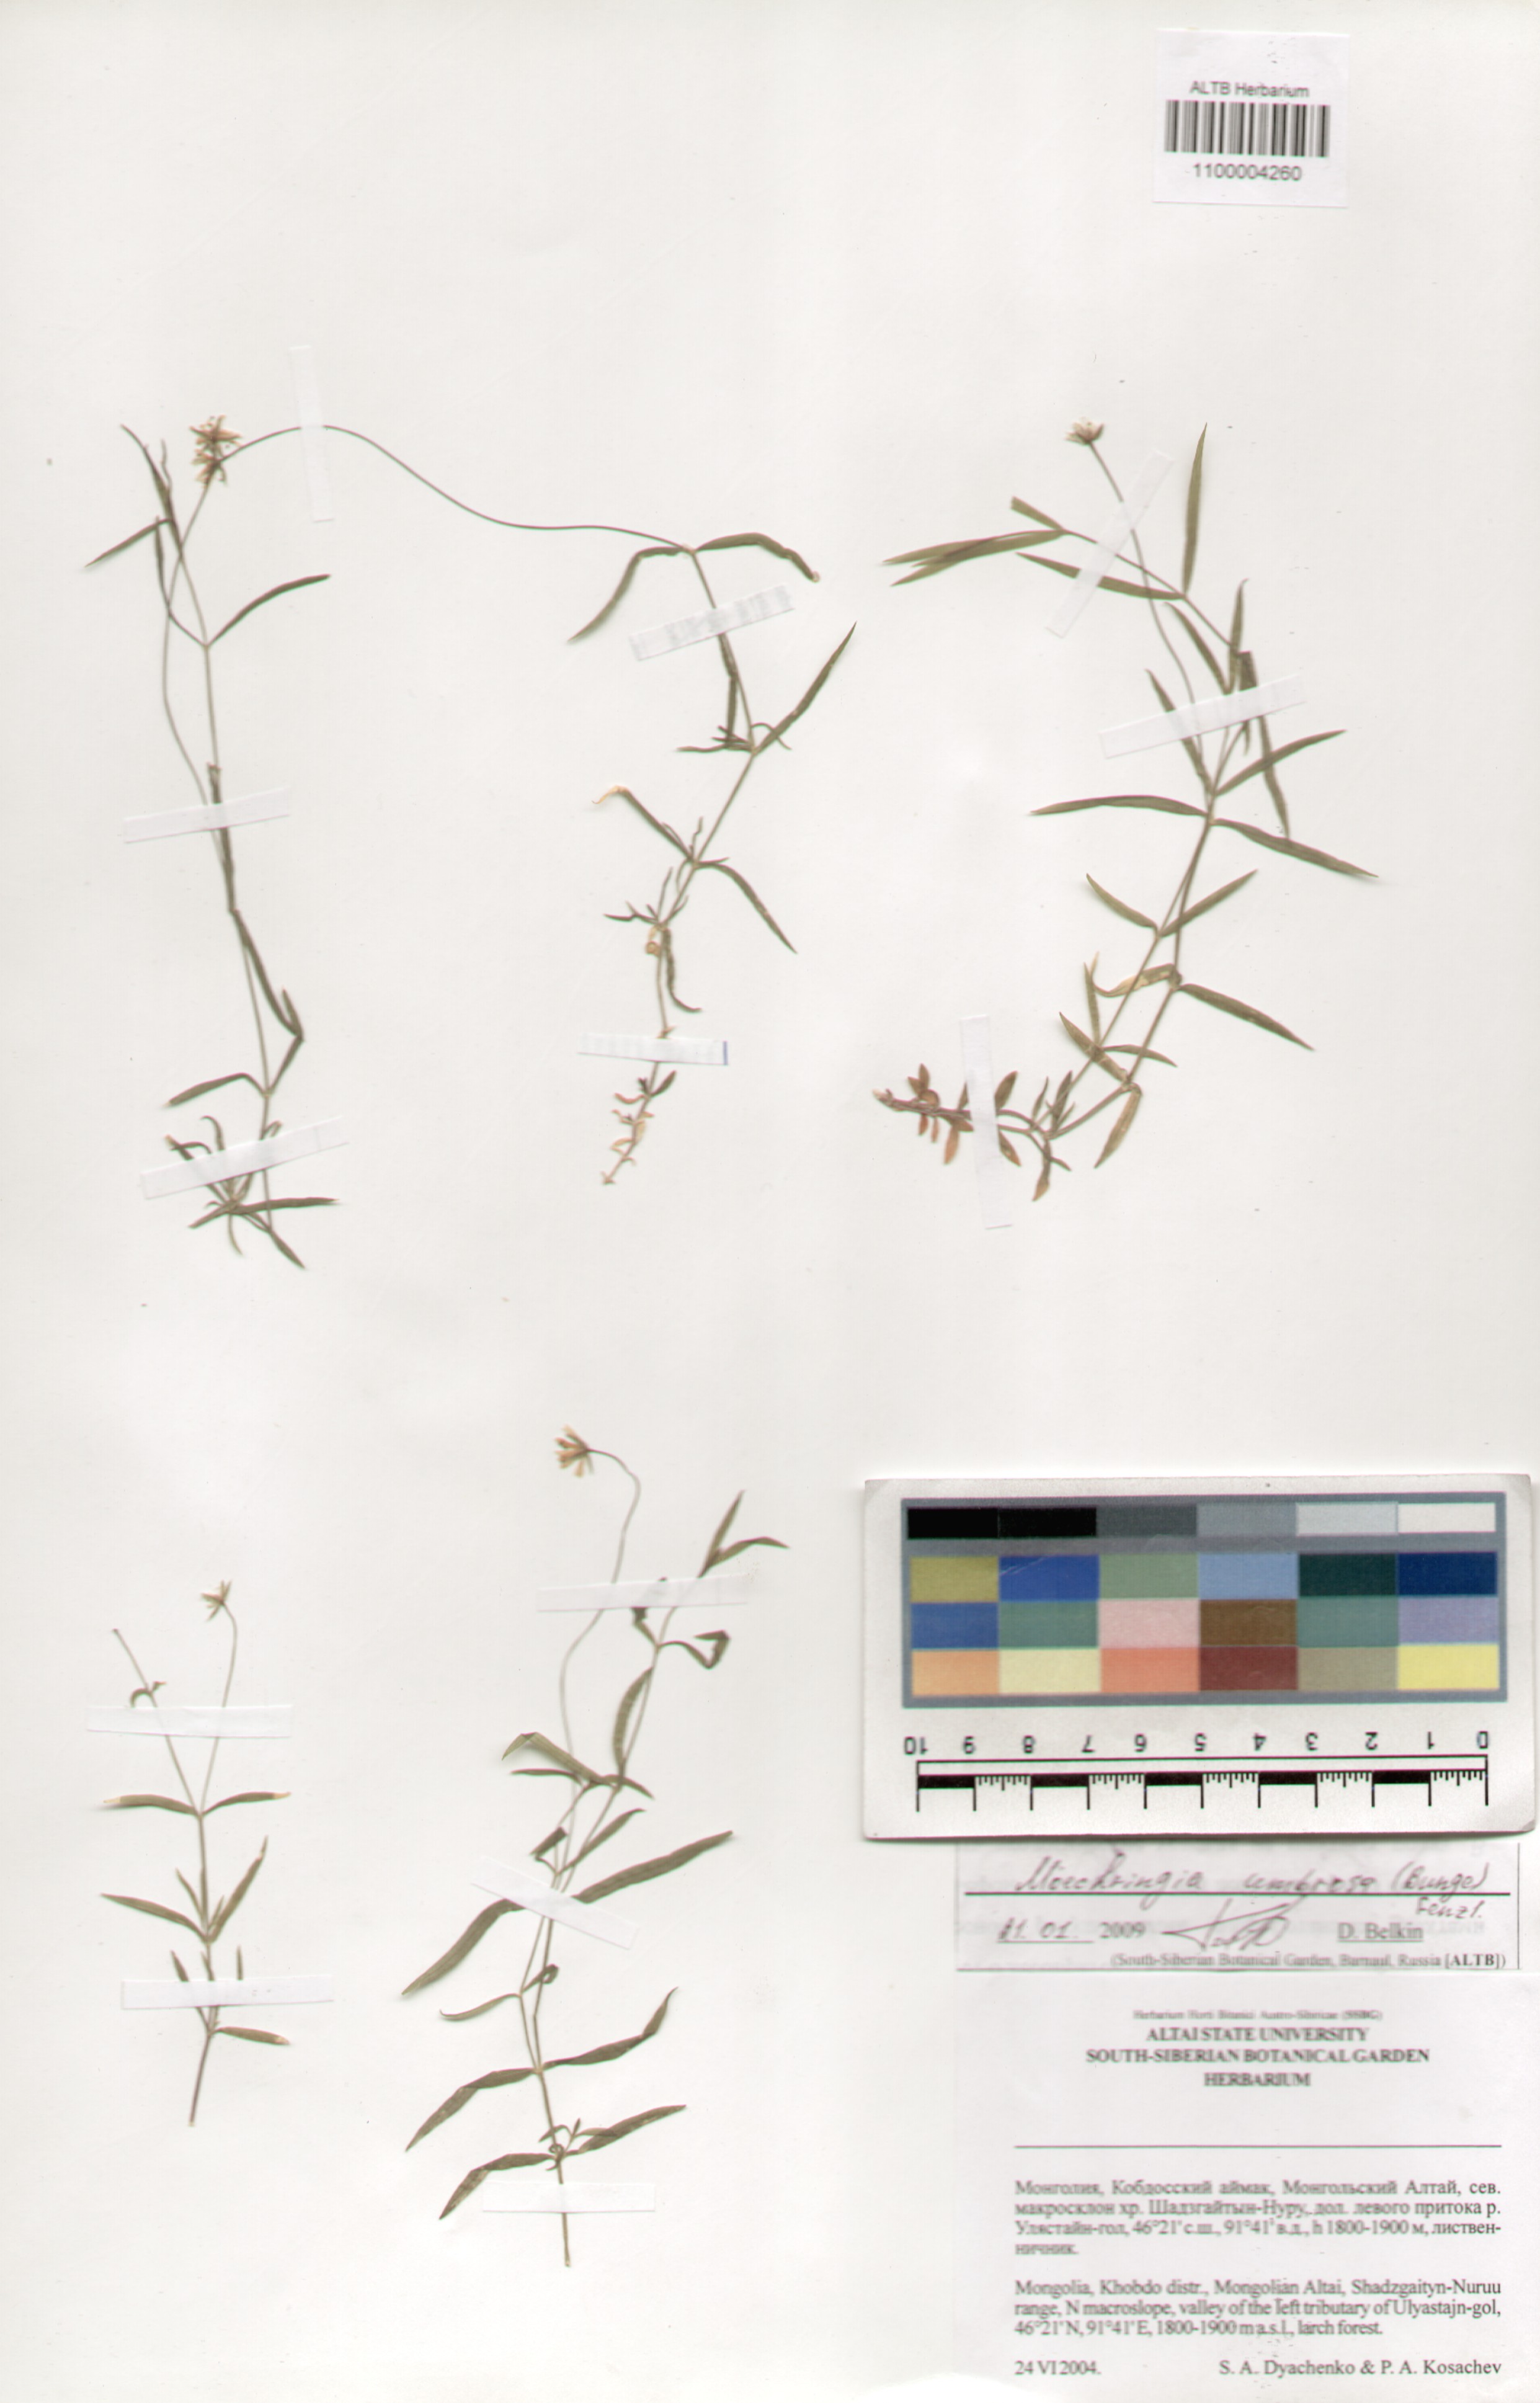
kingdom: Plantae
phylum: Tracheophyta
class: Magnoliopsida
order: Caryophyllales
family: Caryophyllaceae
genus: Moehringia
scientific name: Moehringia umbrosa
